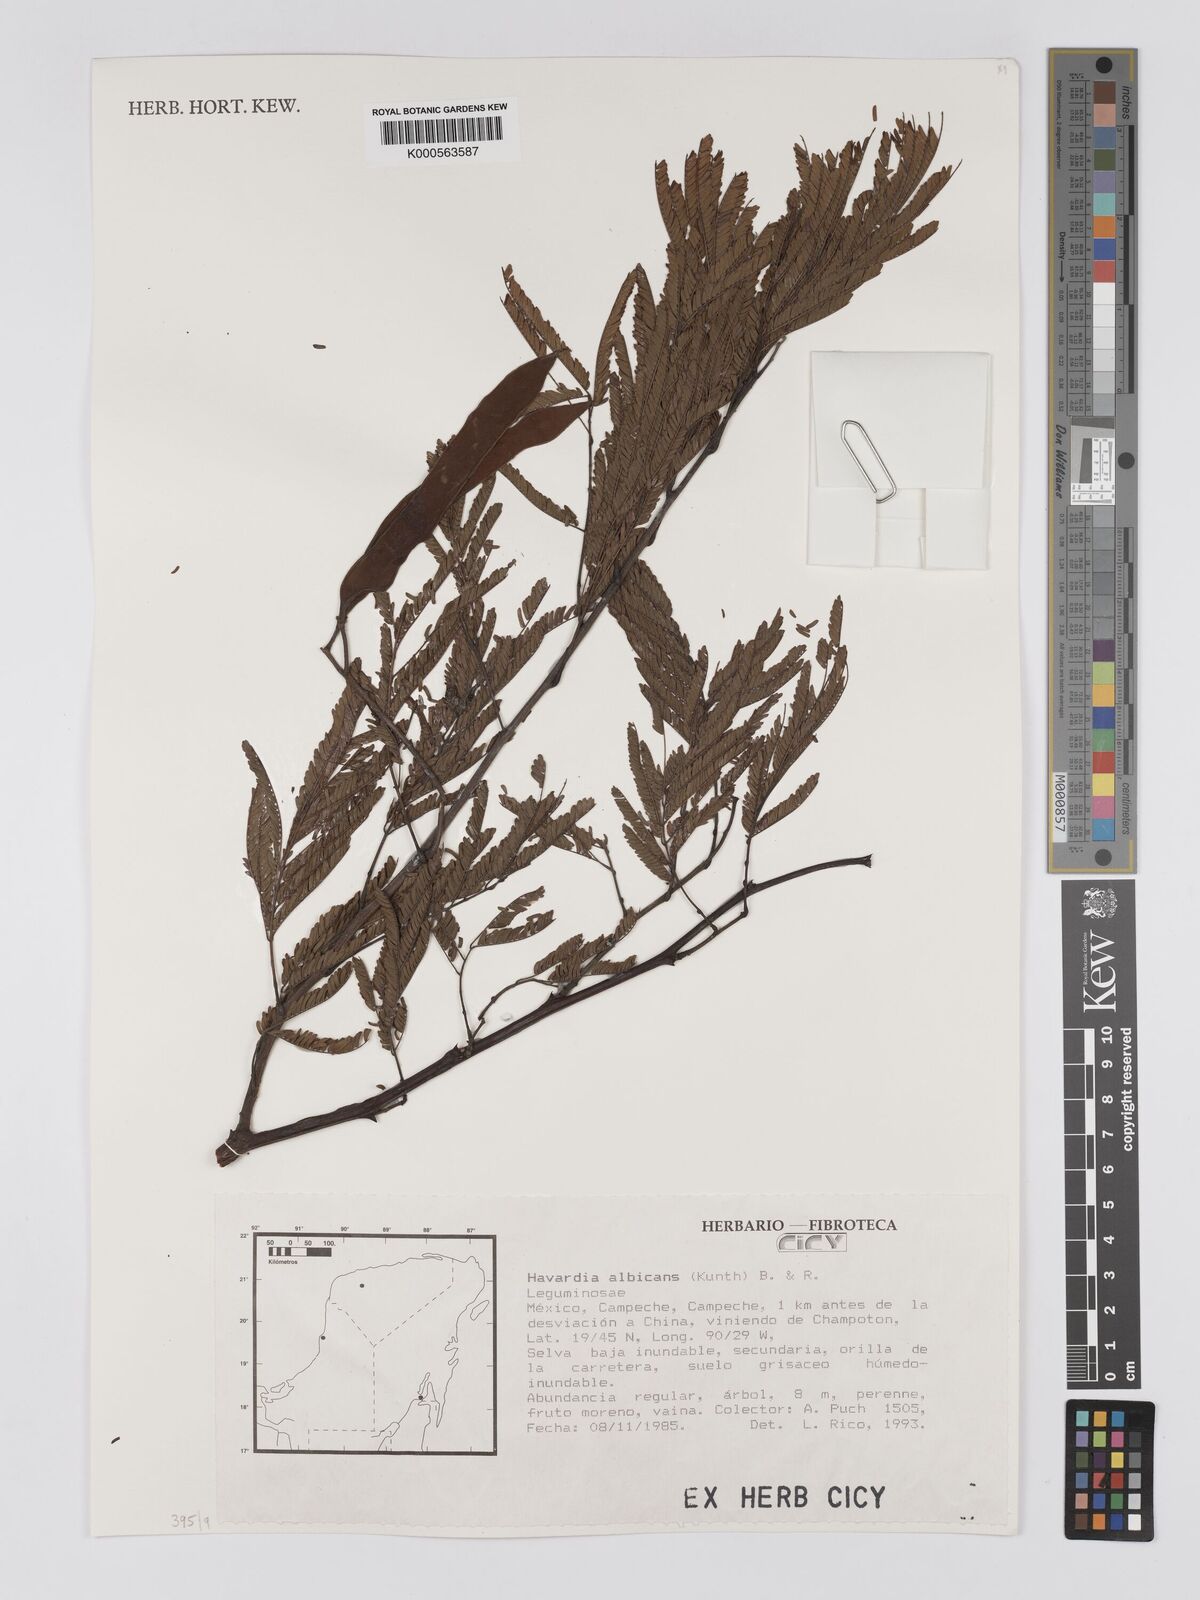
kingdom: Plantae
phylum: Tracheophyta
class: Magnoliopsida
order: Fabales
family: Fabaceae
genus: Havardia
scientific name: Havardia albicans
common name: Huisache
